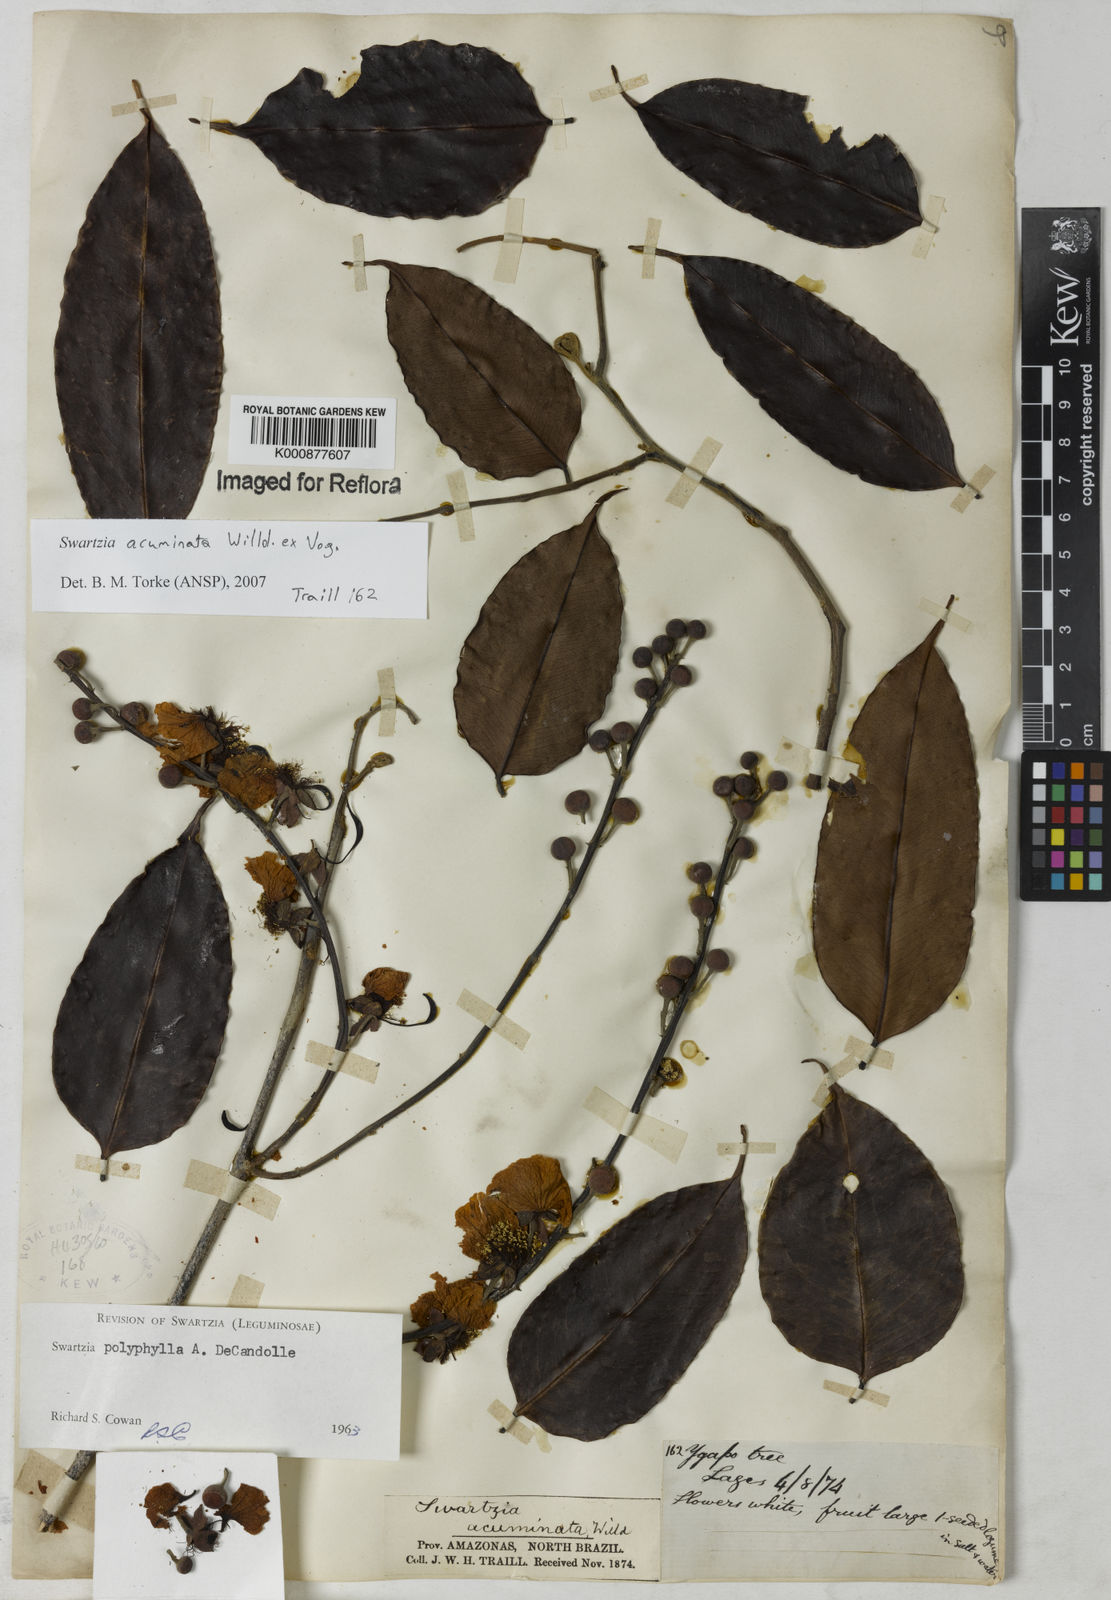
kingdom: Plantae
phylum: Tracheophyta
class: Magnoliopsida
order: Fabales
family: Fabaceae
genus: Swartzia
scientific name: Swartzia acuminata
